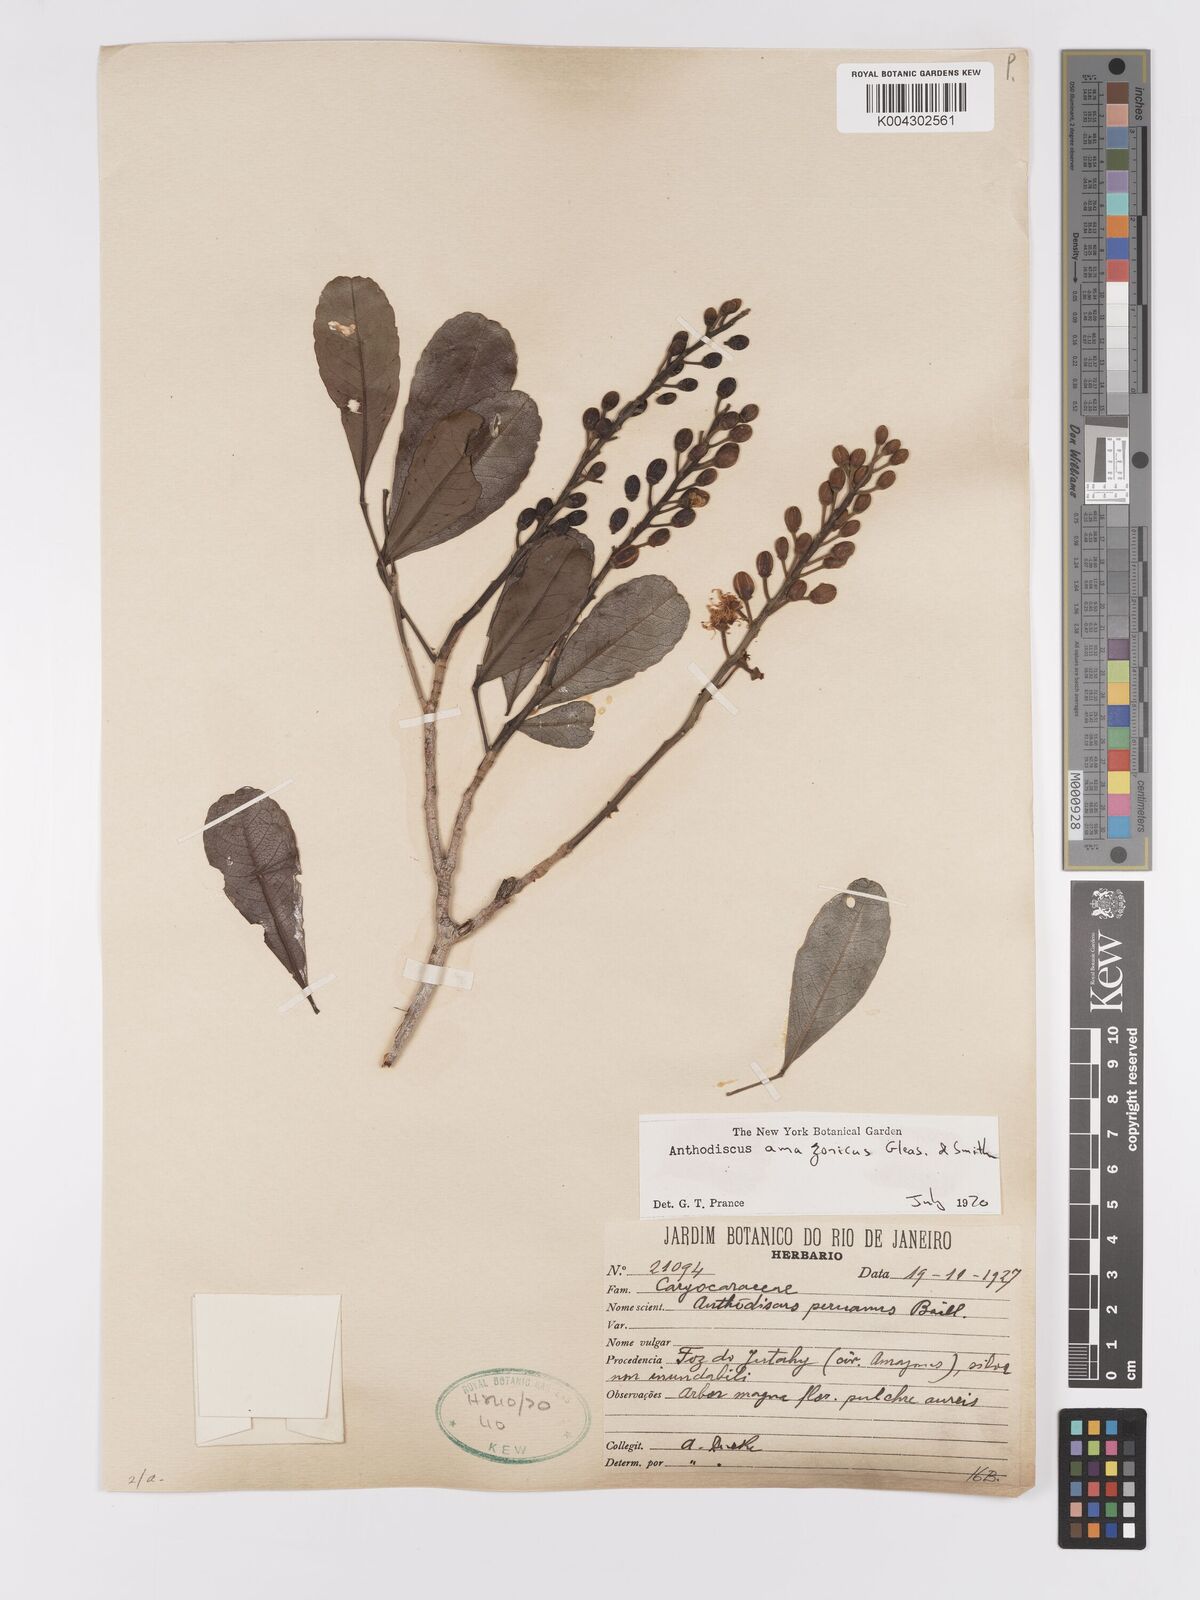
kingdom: Plantae
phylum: Tracheophyta
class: Magnoliopsida
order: Malpighiales
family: Caryocaraceae
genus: Anthodiscus
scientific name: Anthodiscus amazonicus
